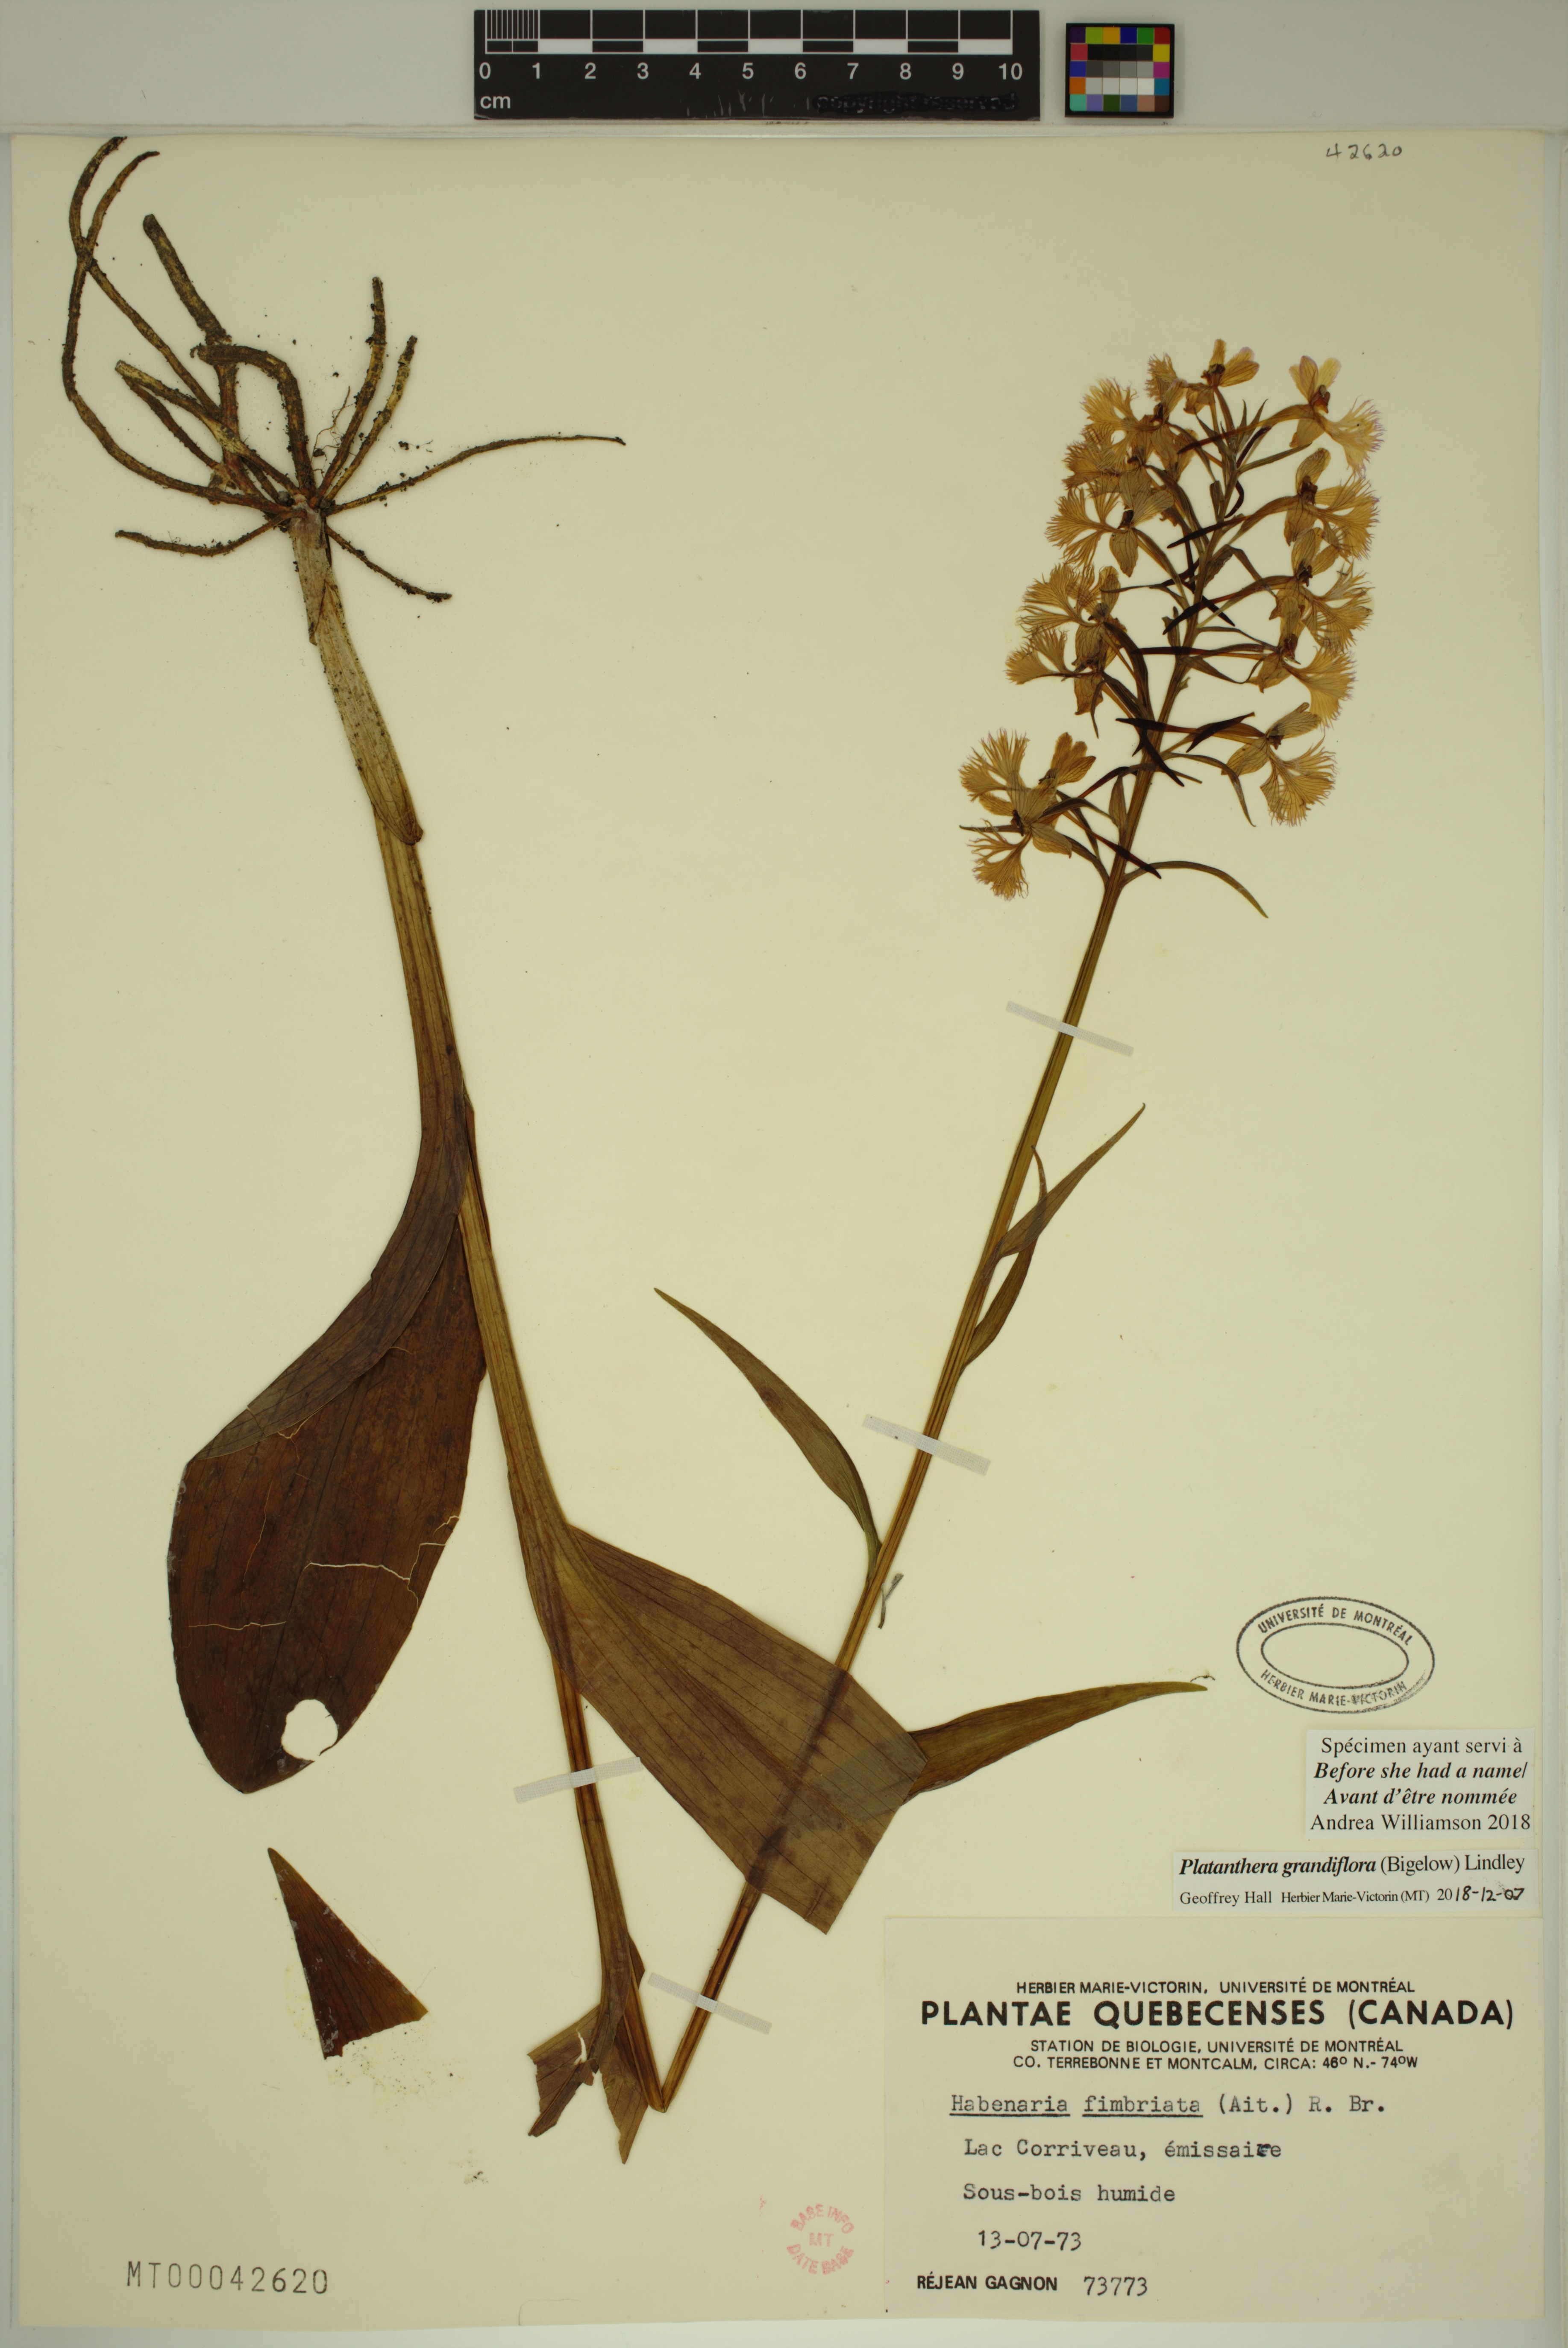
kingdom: Plantae
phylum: Tracheophyta
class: Liliopsida
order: Asparagales
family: Orchidaceae
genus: Platanthera
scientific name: Platanthera grandiflora
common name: Greater purple fringed orchid
